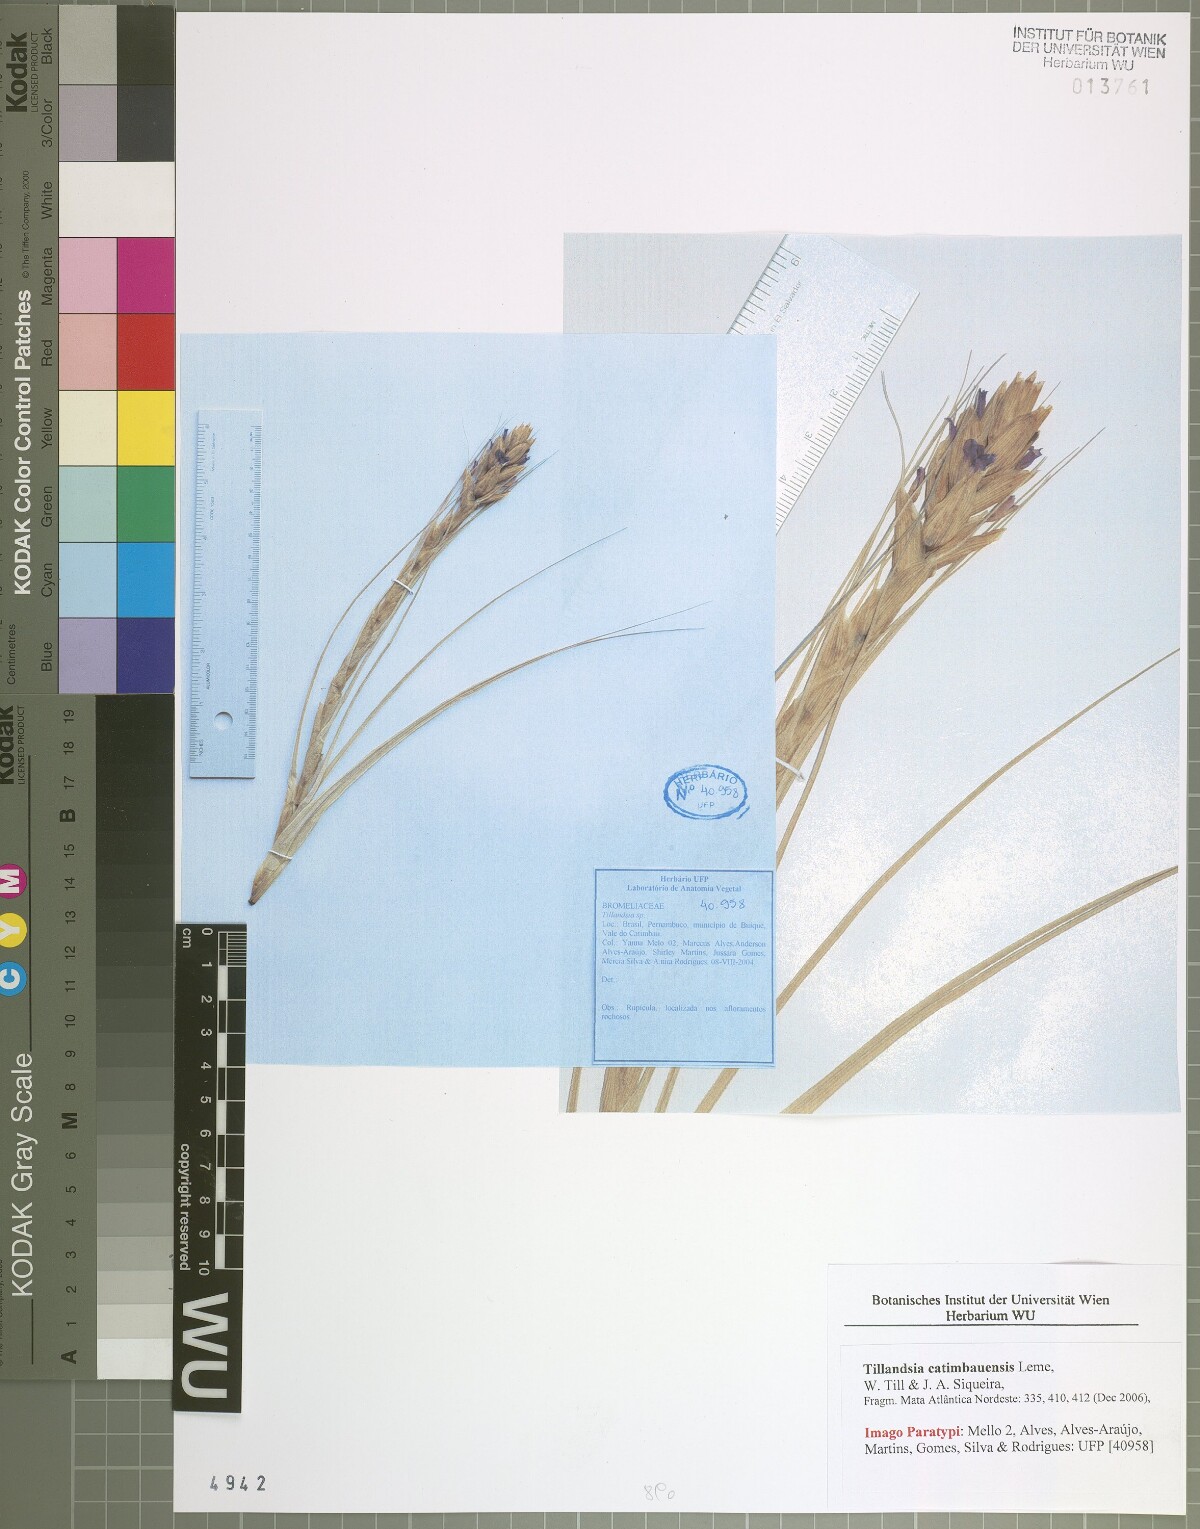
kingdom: Plantae
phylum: Tracheophyta
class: Liliopsida
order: Poales
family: Bromeliaceae
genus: Tillandsia
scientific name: Tillandsia catimbauensis
